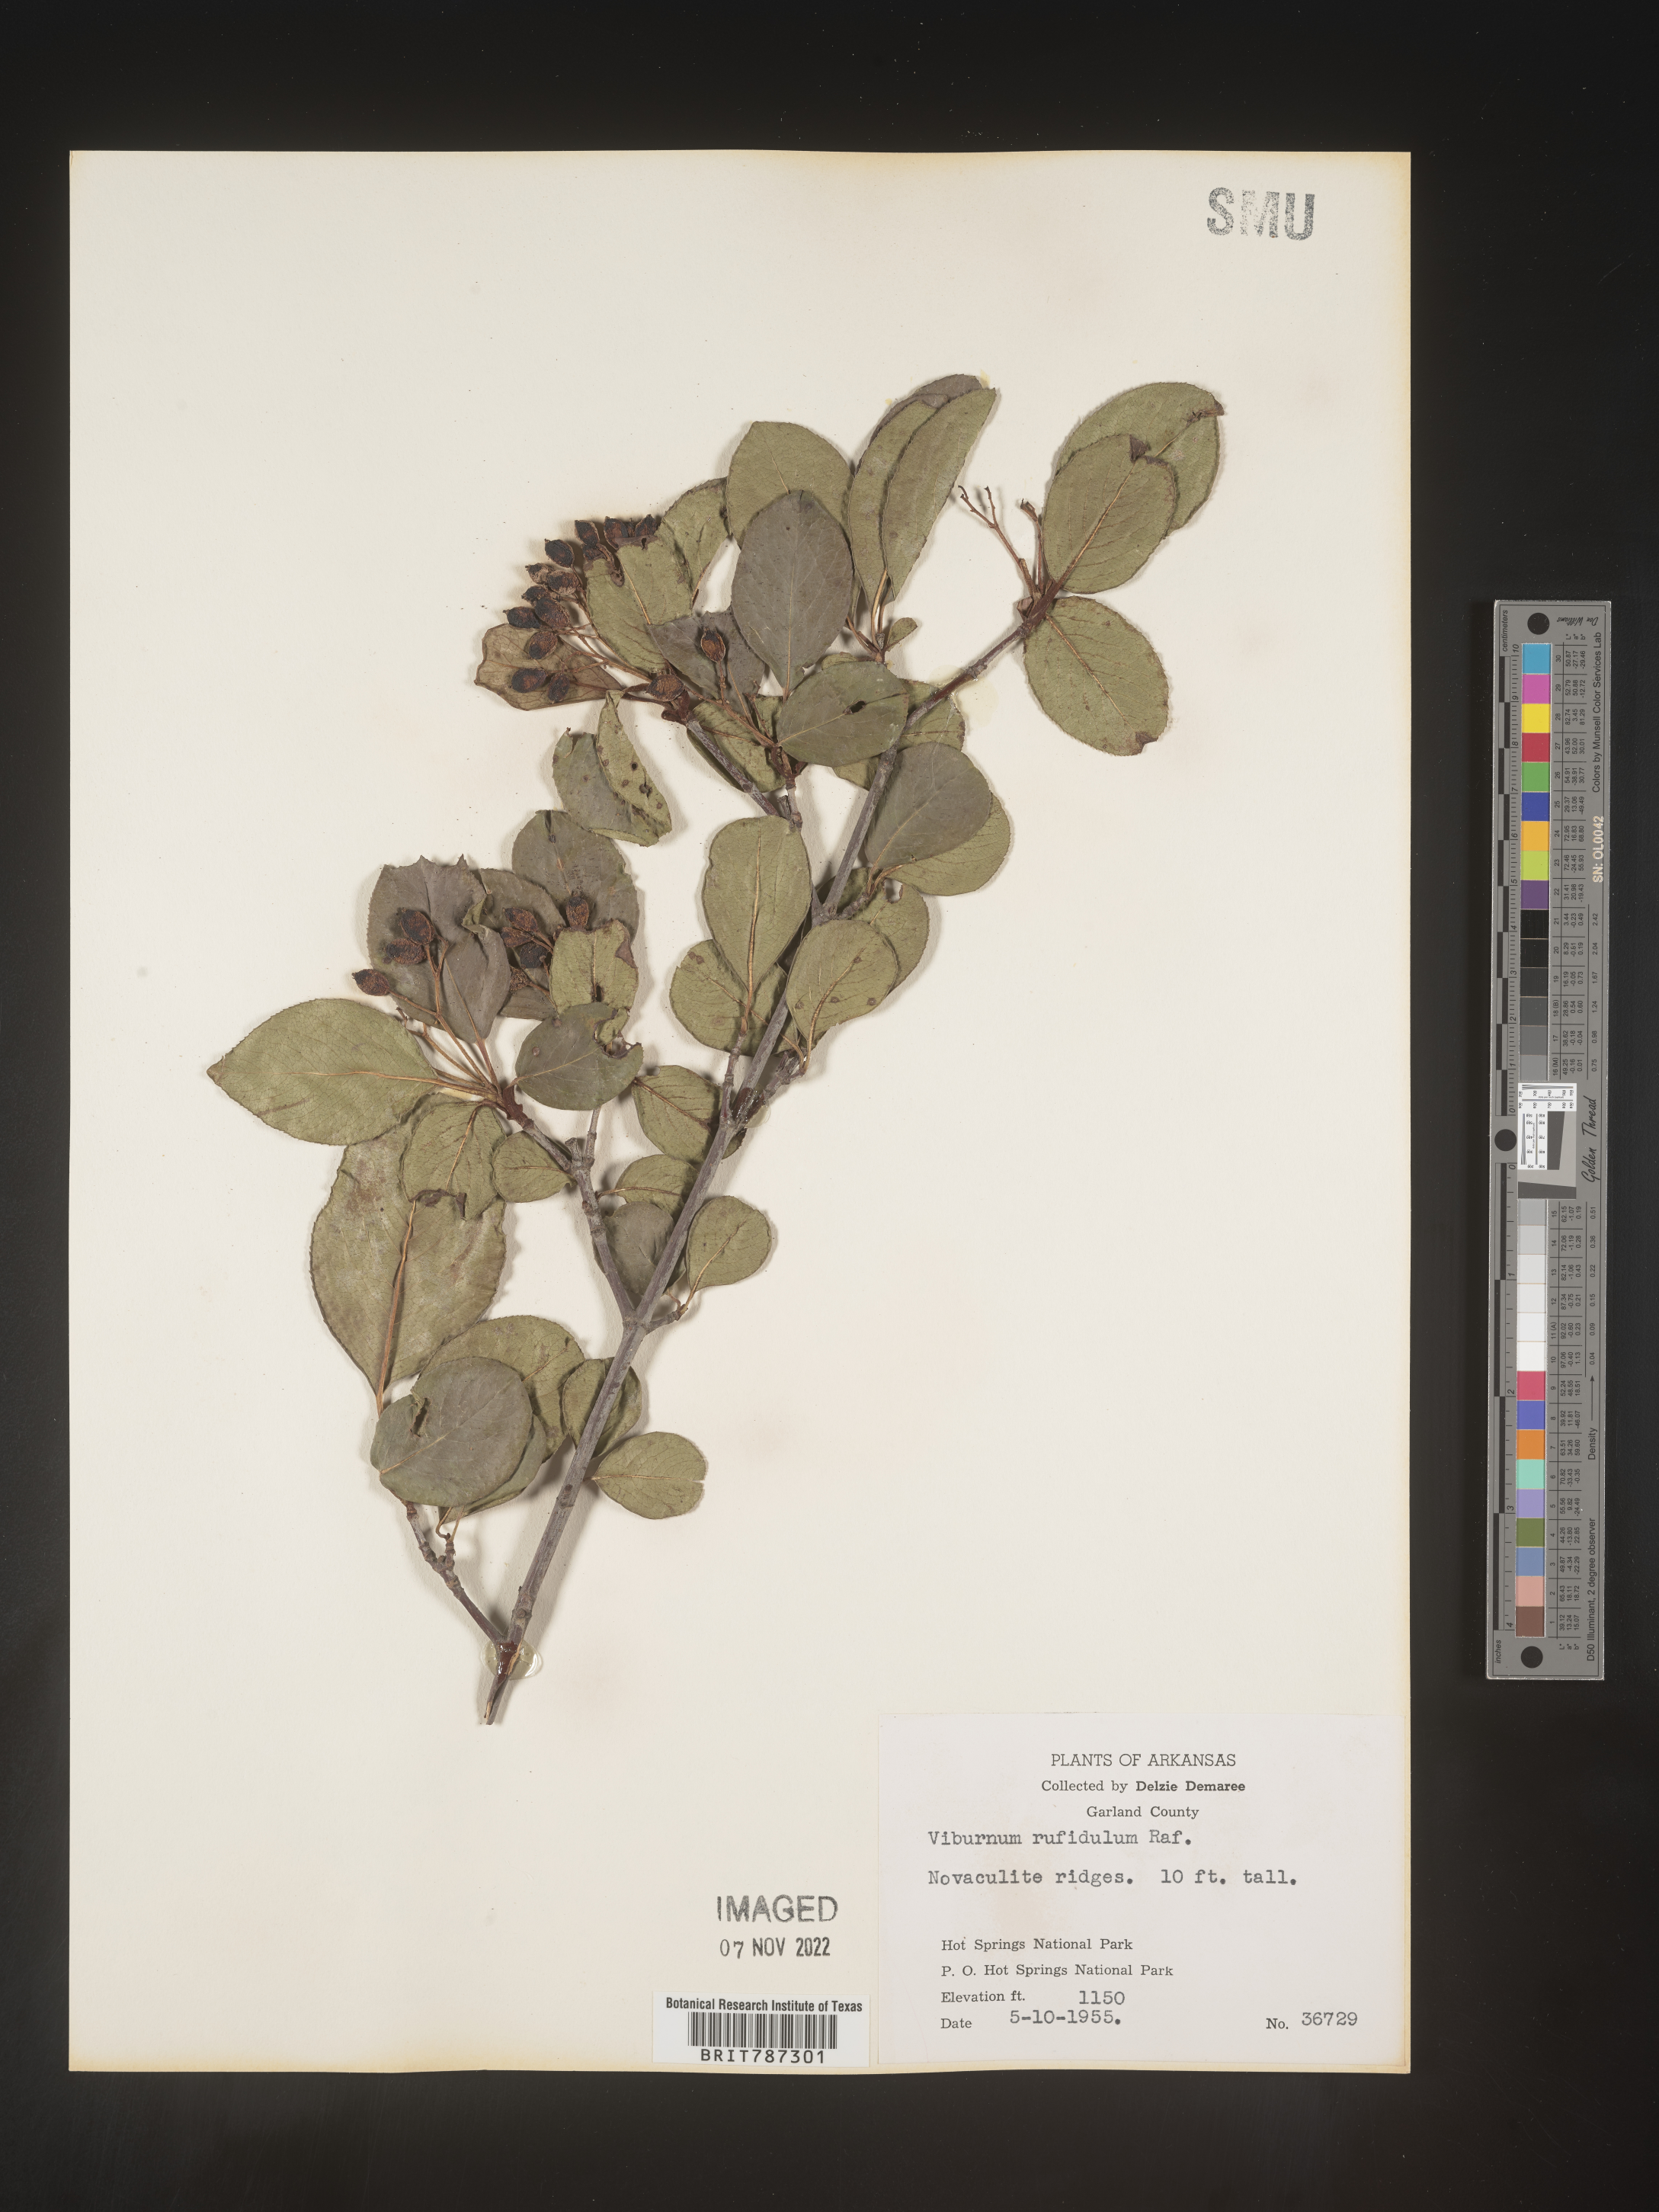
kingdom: Plantae
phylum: Tracheophyta
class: Magnoliopsida
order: Dipsacales
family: Viburnaceae
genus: Viburnum
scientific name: Viburnum rufidulum
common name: Blue haw
